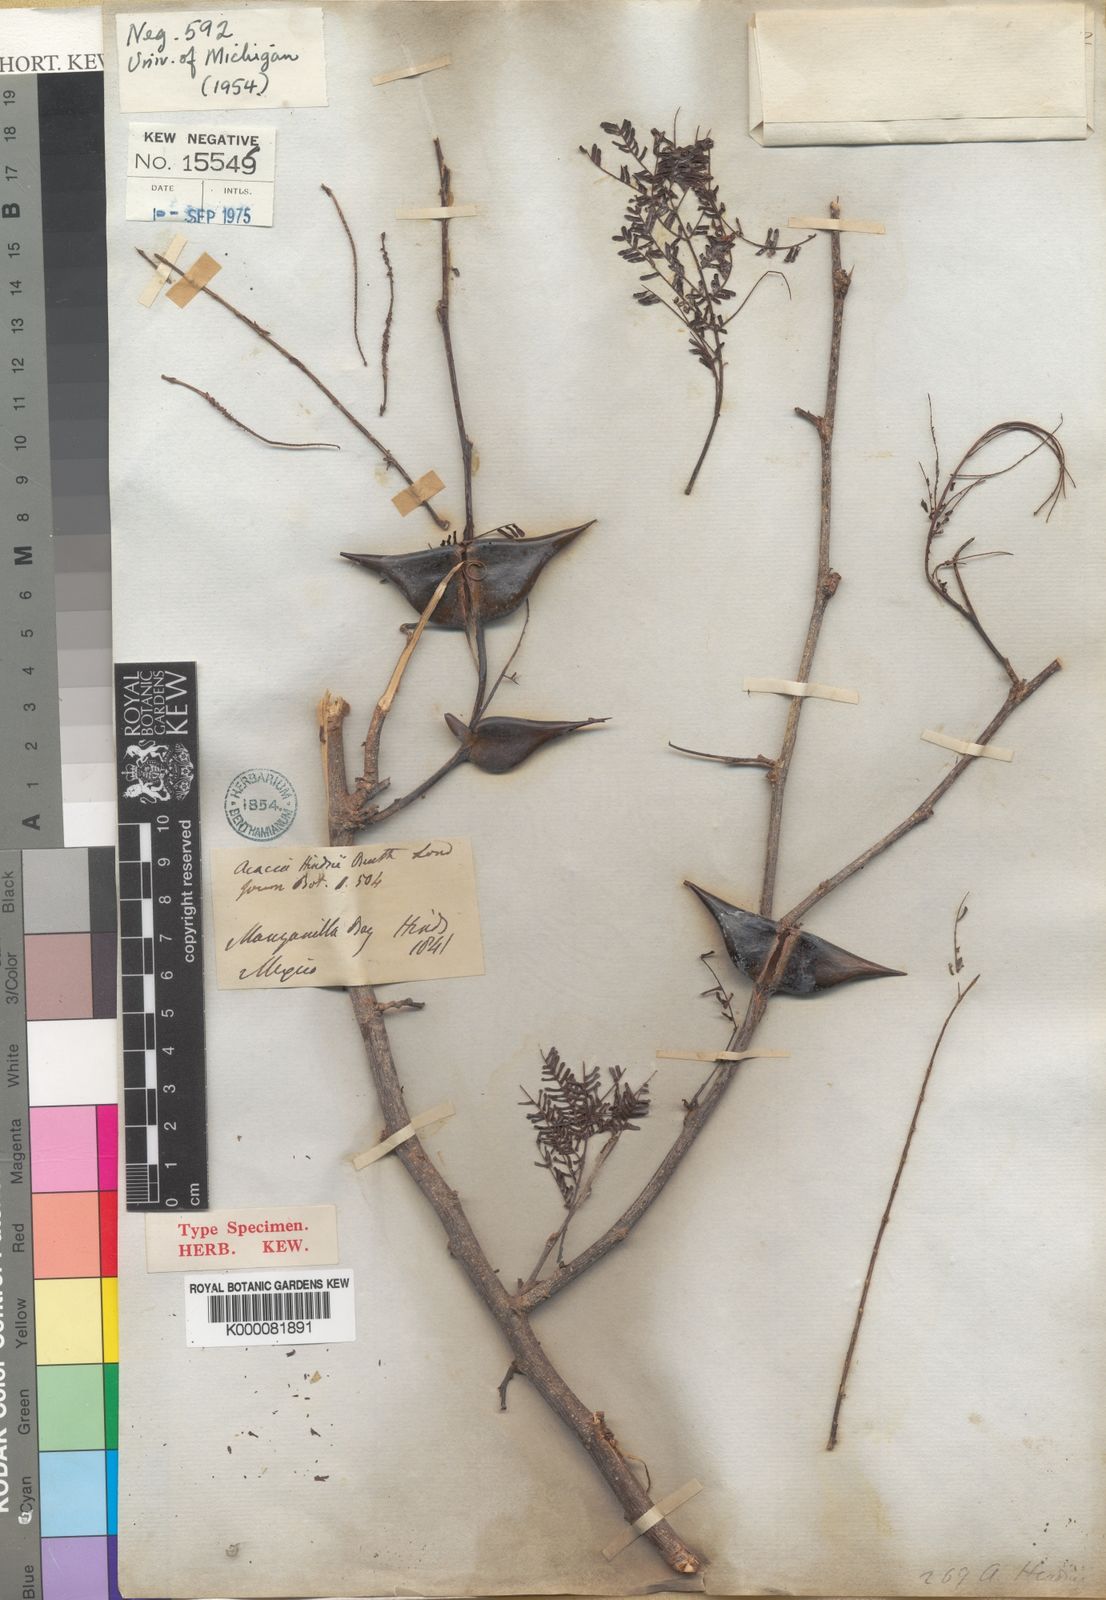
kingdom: Plantae
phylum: Tracheophyta
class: Magnoliopsida
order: Fabales
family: Fabaceae
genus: Vachellia
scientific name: Vachellia hindsii
